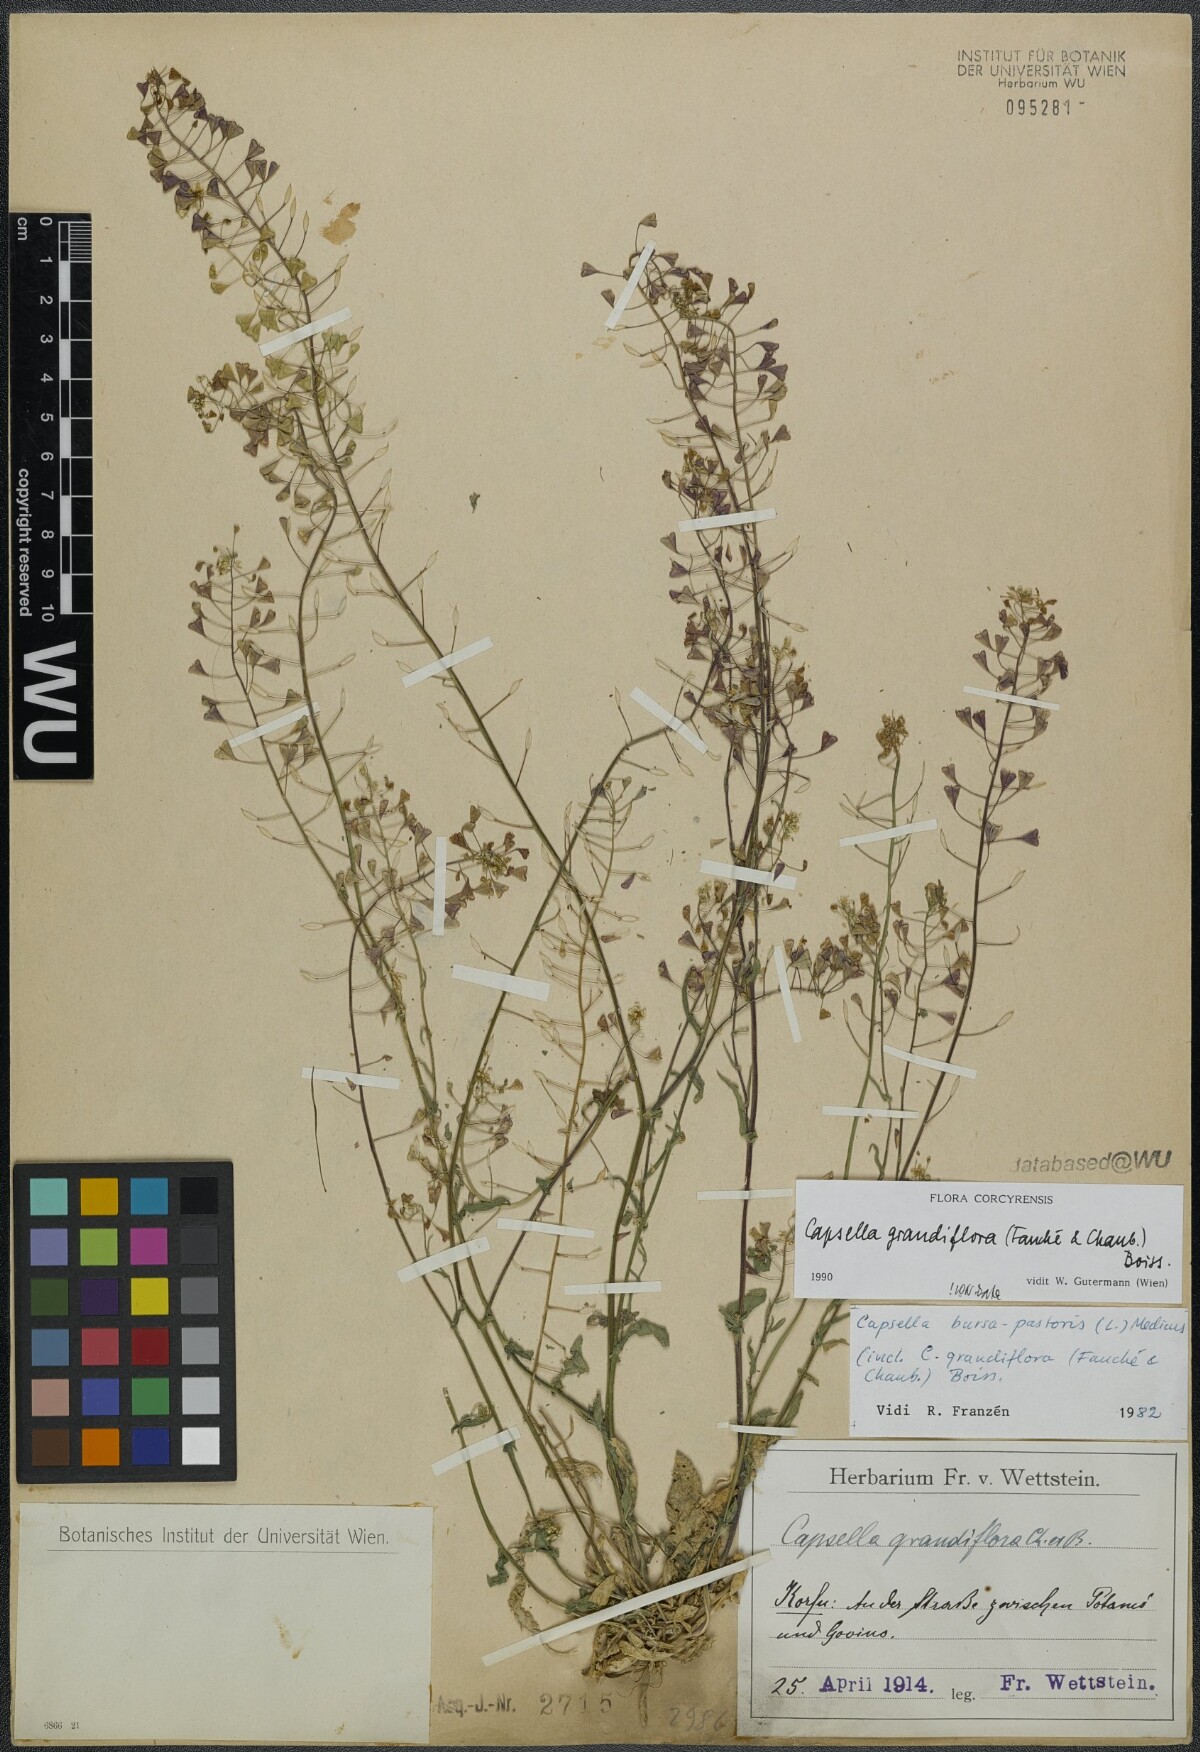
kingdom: Plantae
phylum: Tracheophyta
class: Magnoliopsida
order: Brassicales
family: Brassicaceae
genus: Capsella
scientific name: Capsella grandiflora
